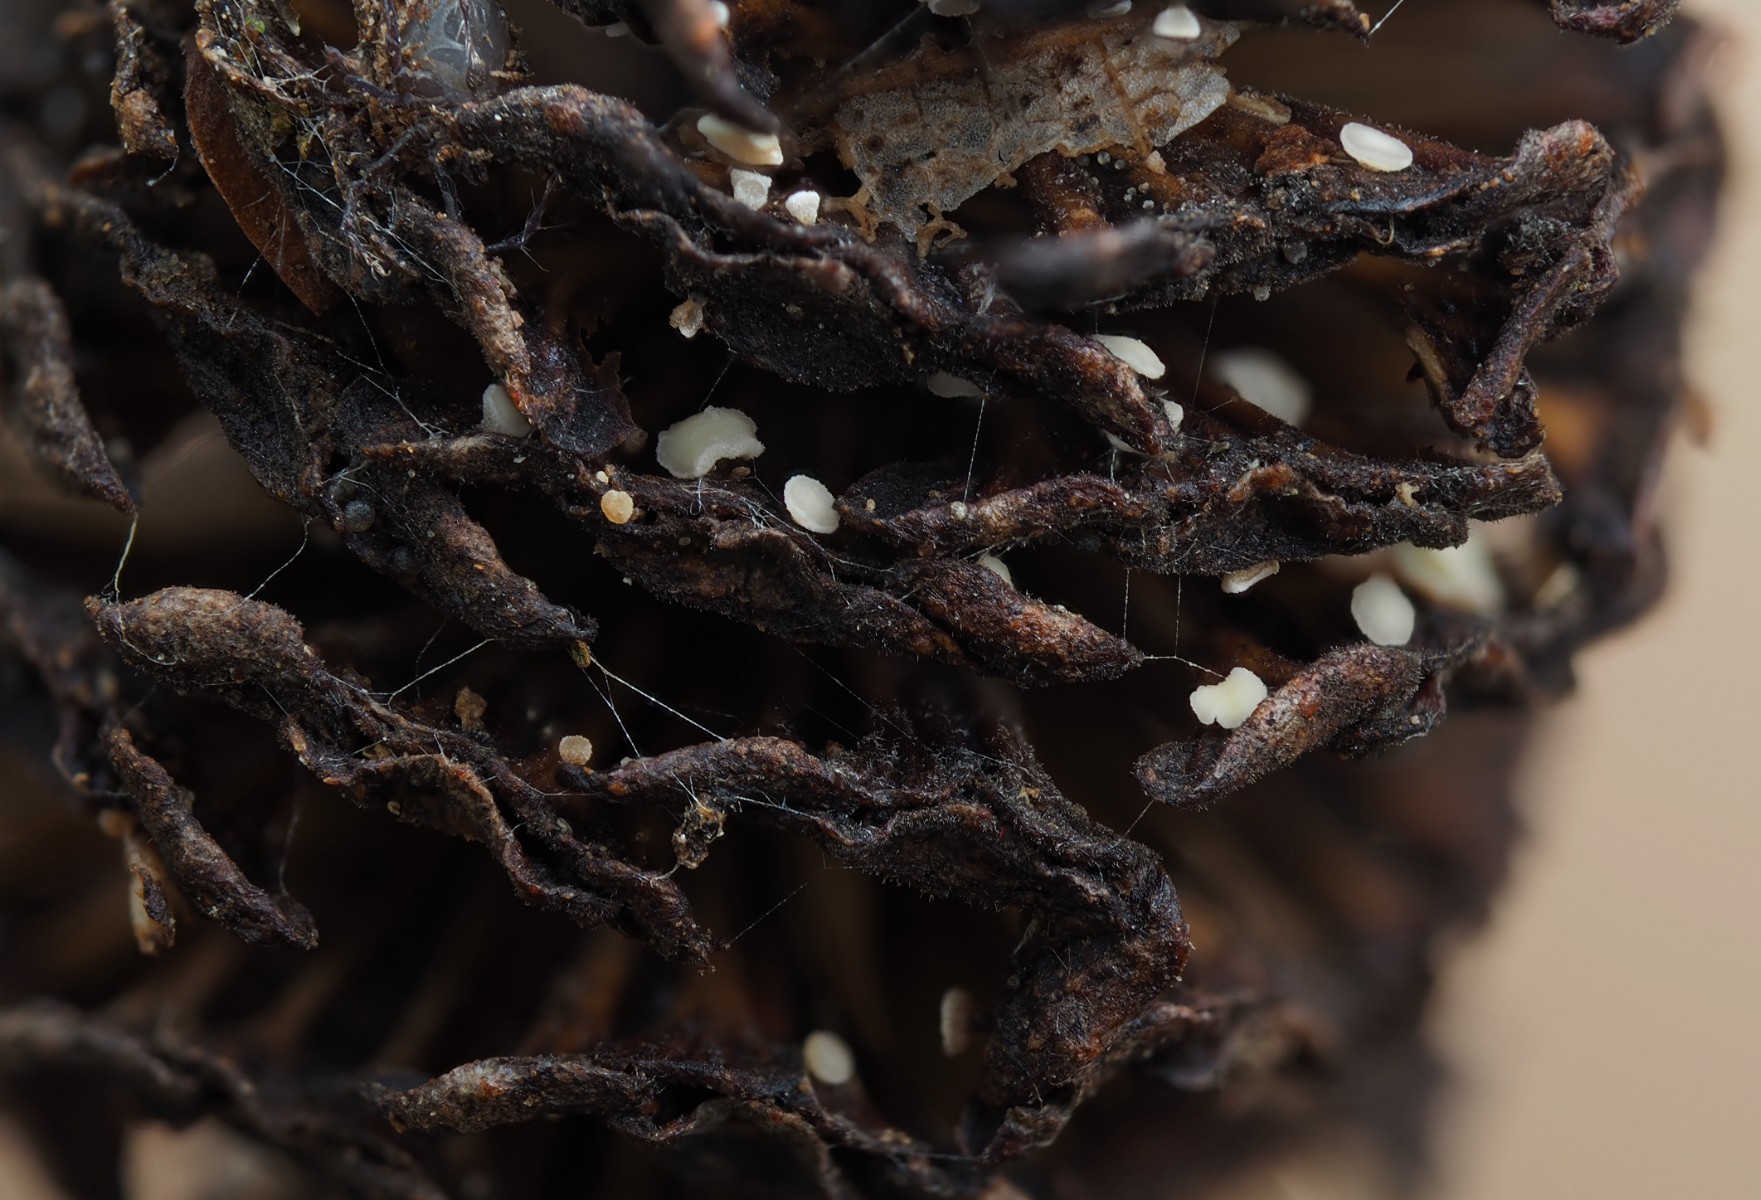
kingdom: Fungi
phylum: Ascomycota
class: Leotiomycetes
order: Helotiales
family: Pezizellaceae
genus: Calycina
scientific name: Calycina alniella
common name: ellekogle-stilkskive
